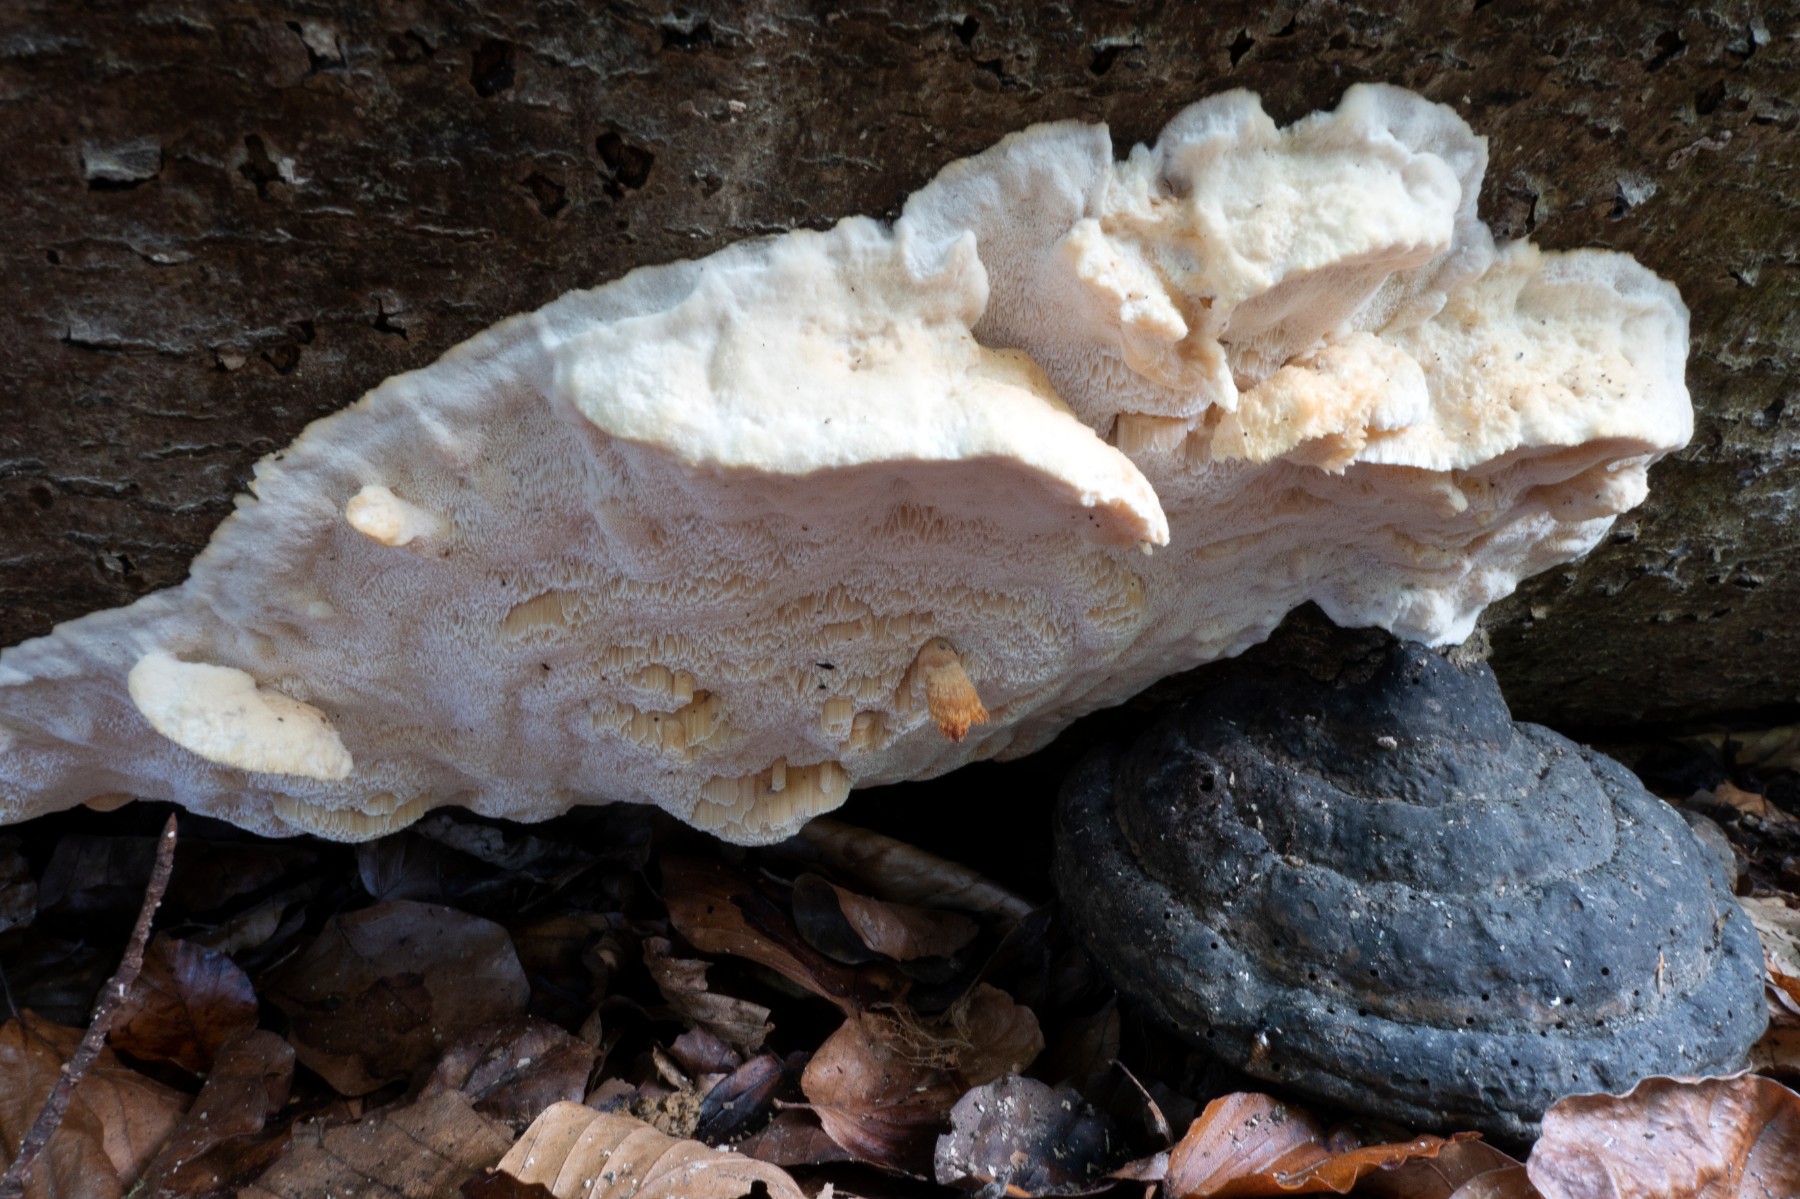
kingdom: Fungi
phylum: Basidiomycota
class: Agaricomycetes
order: Polyporales
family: Steccherinaceae
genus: Antrodiella
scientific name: Antrodiella mentschulensis
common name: abrikosporesvamp
